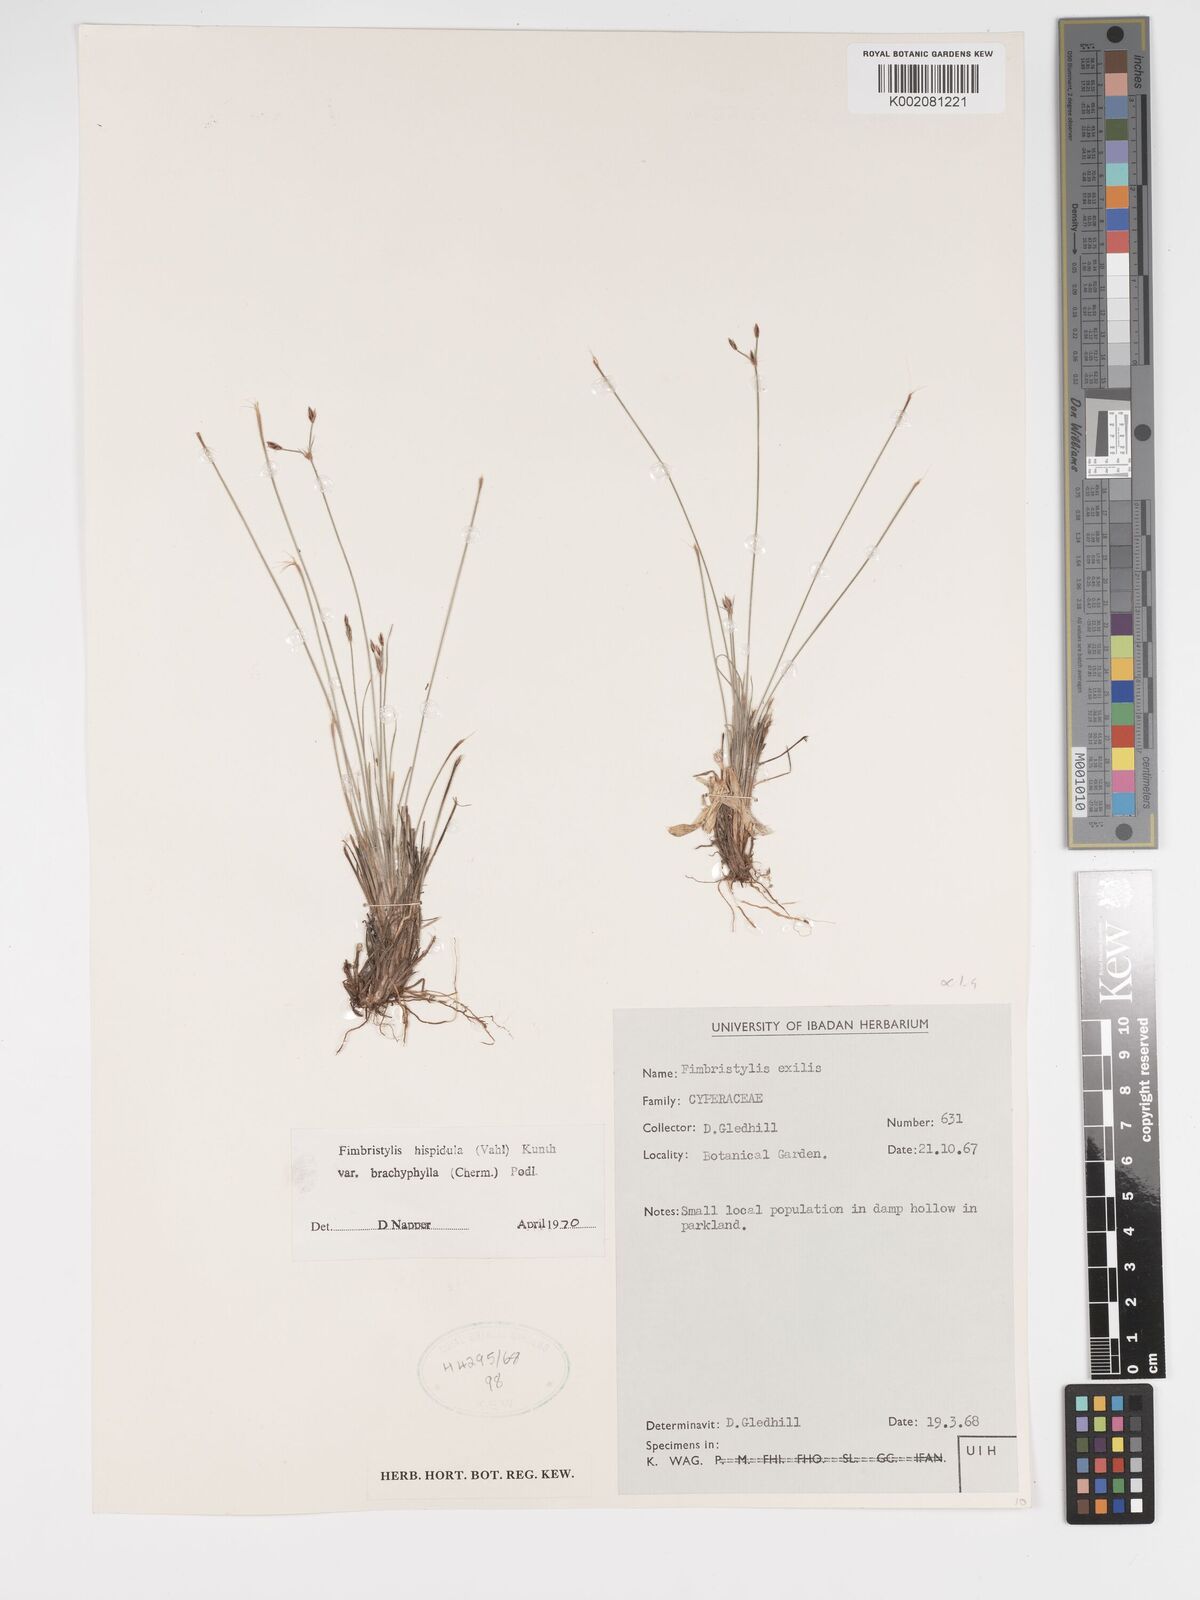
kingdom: Plantae
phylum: Tracheophyta
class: Liliopsida
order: Poales
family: Cyperaceae
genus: Bulbostylis
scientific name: Bulbostylis hispidula
